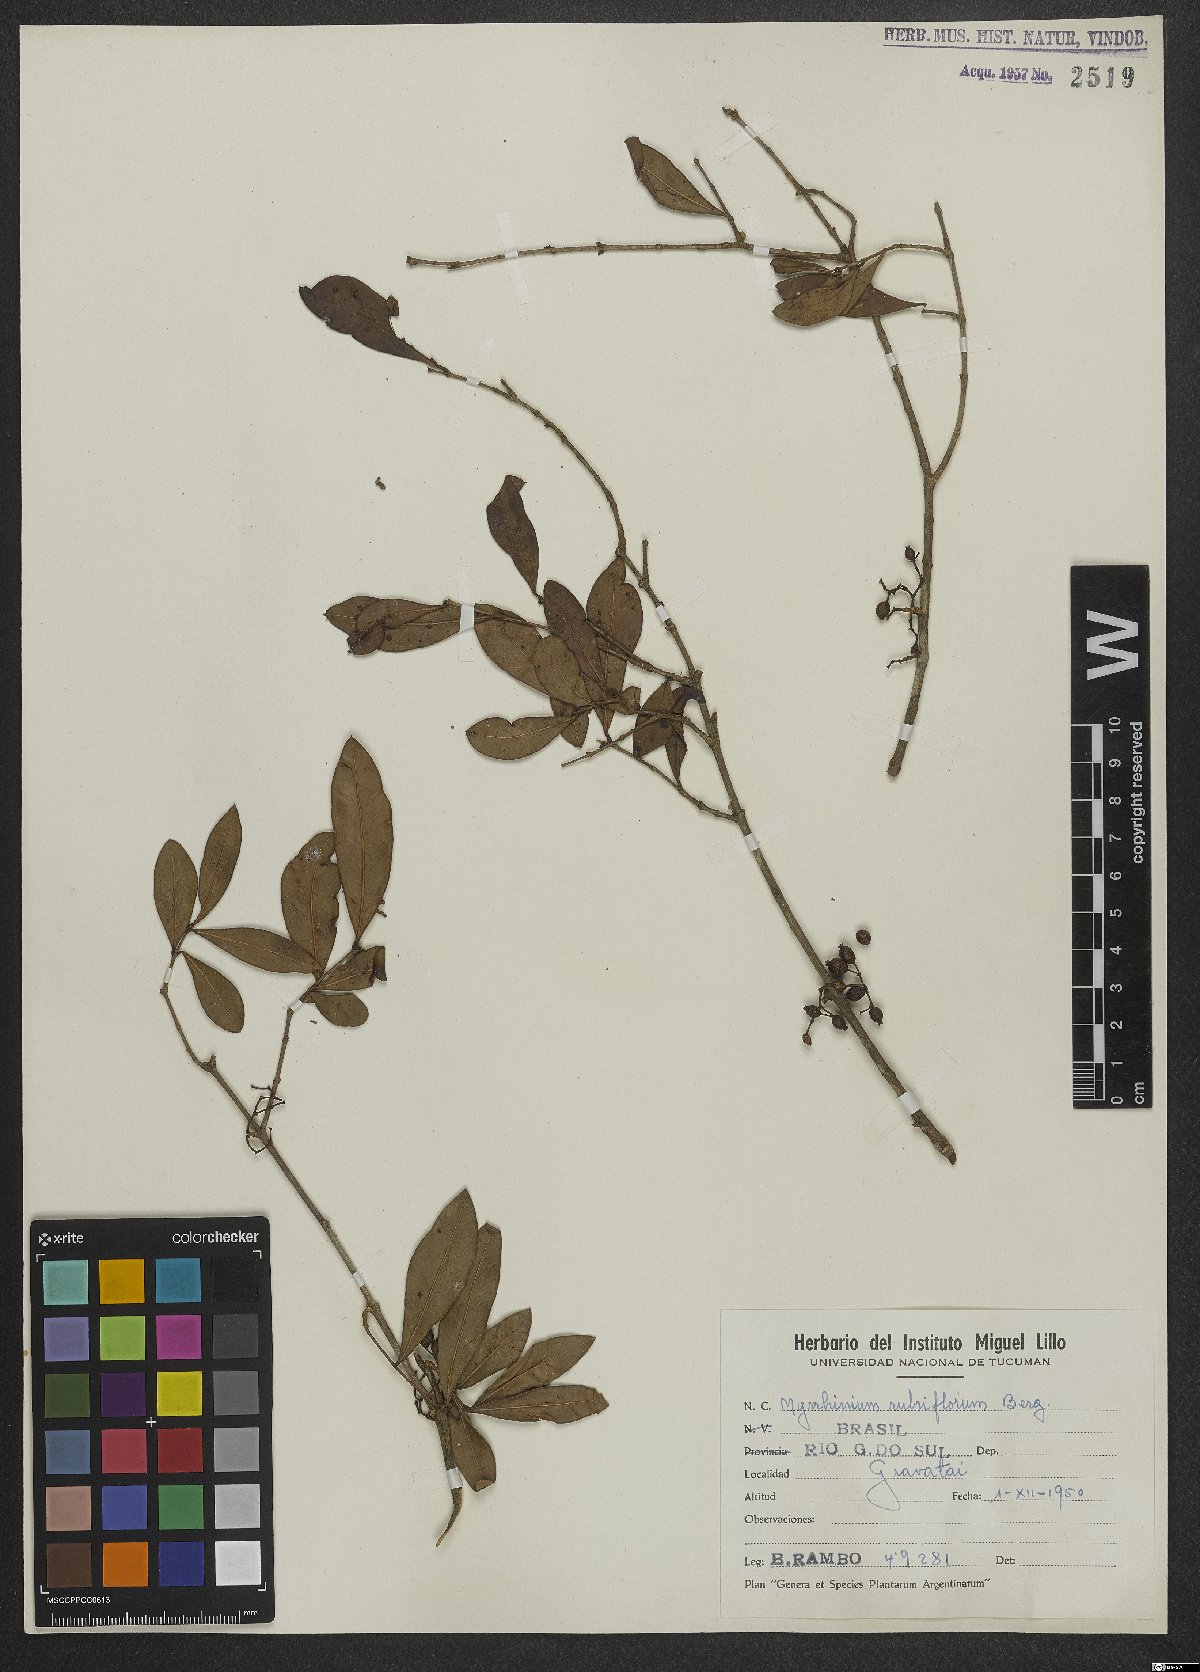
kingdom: Plantae
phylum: Tracheophyta
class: Magnoliopsida
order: Myrtales
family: Myrtaceae
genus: Myrrhinium
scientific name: Myrrhinium atropurpureum
